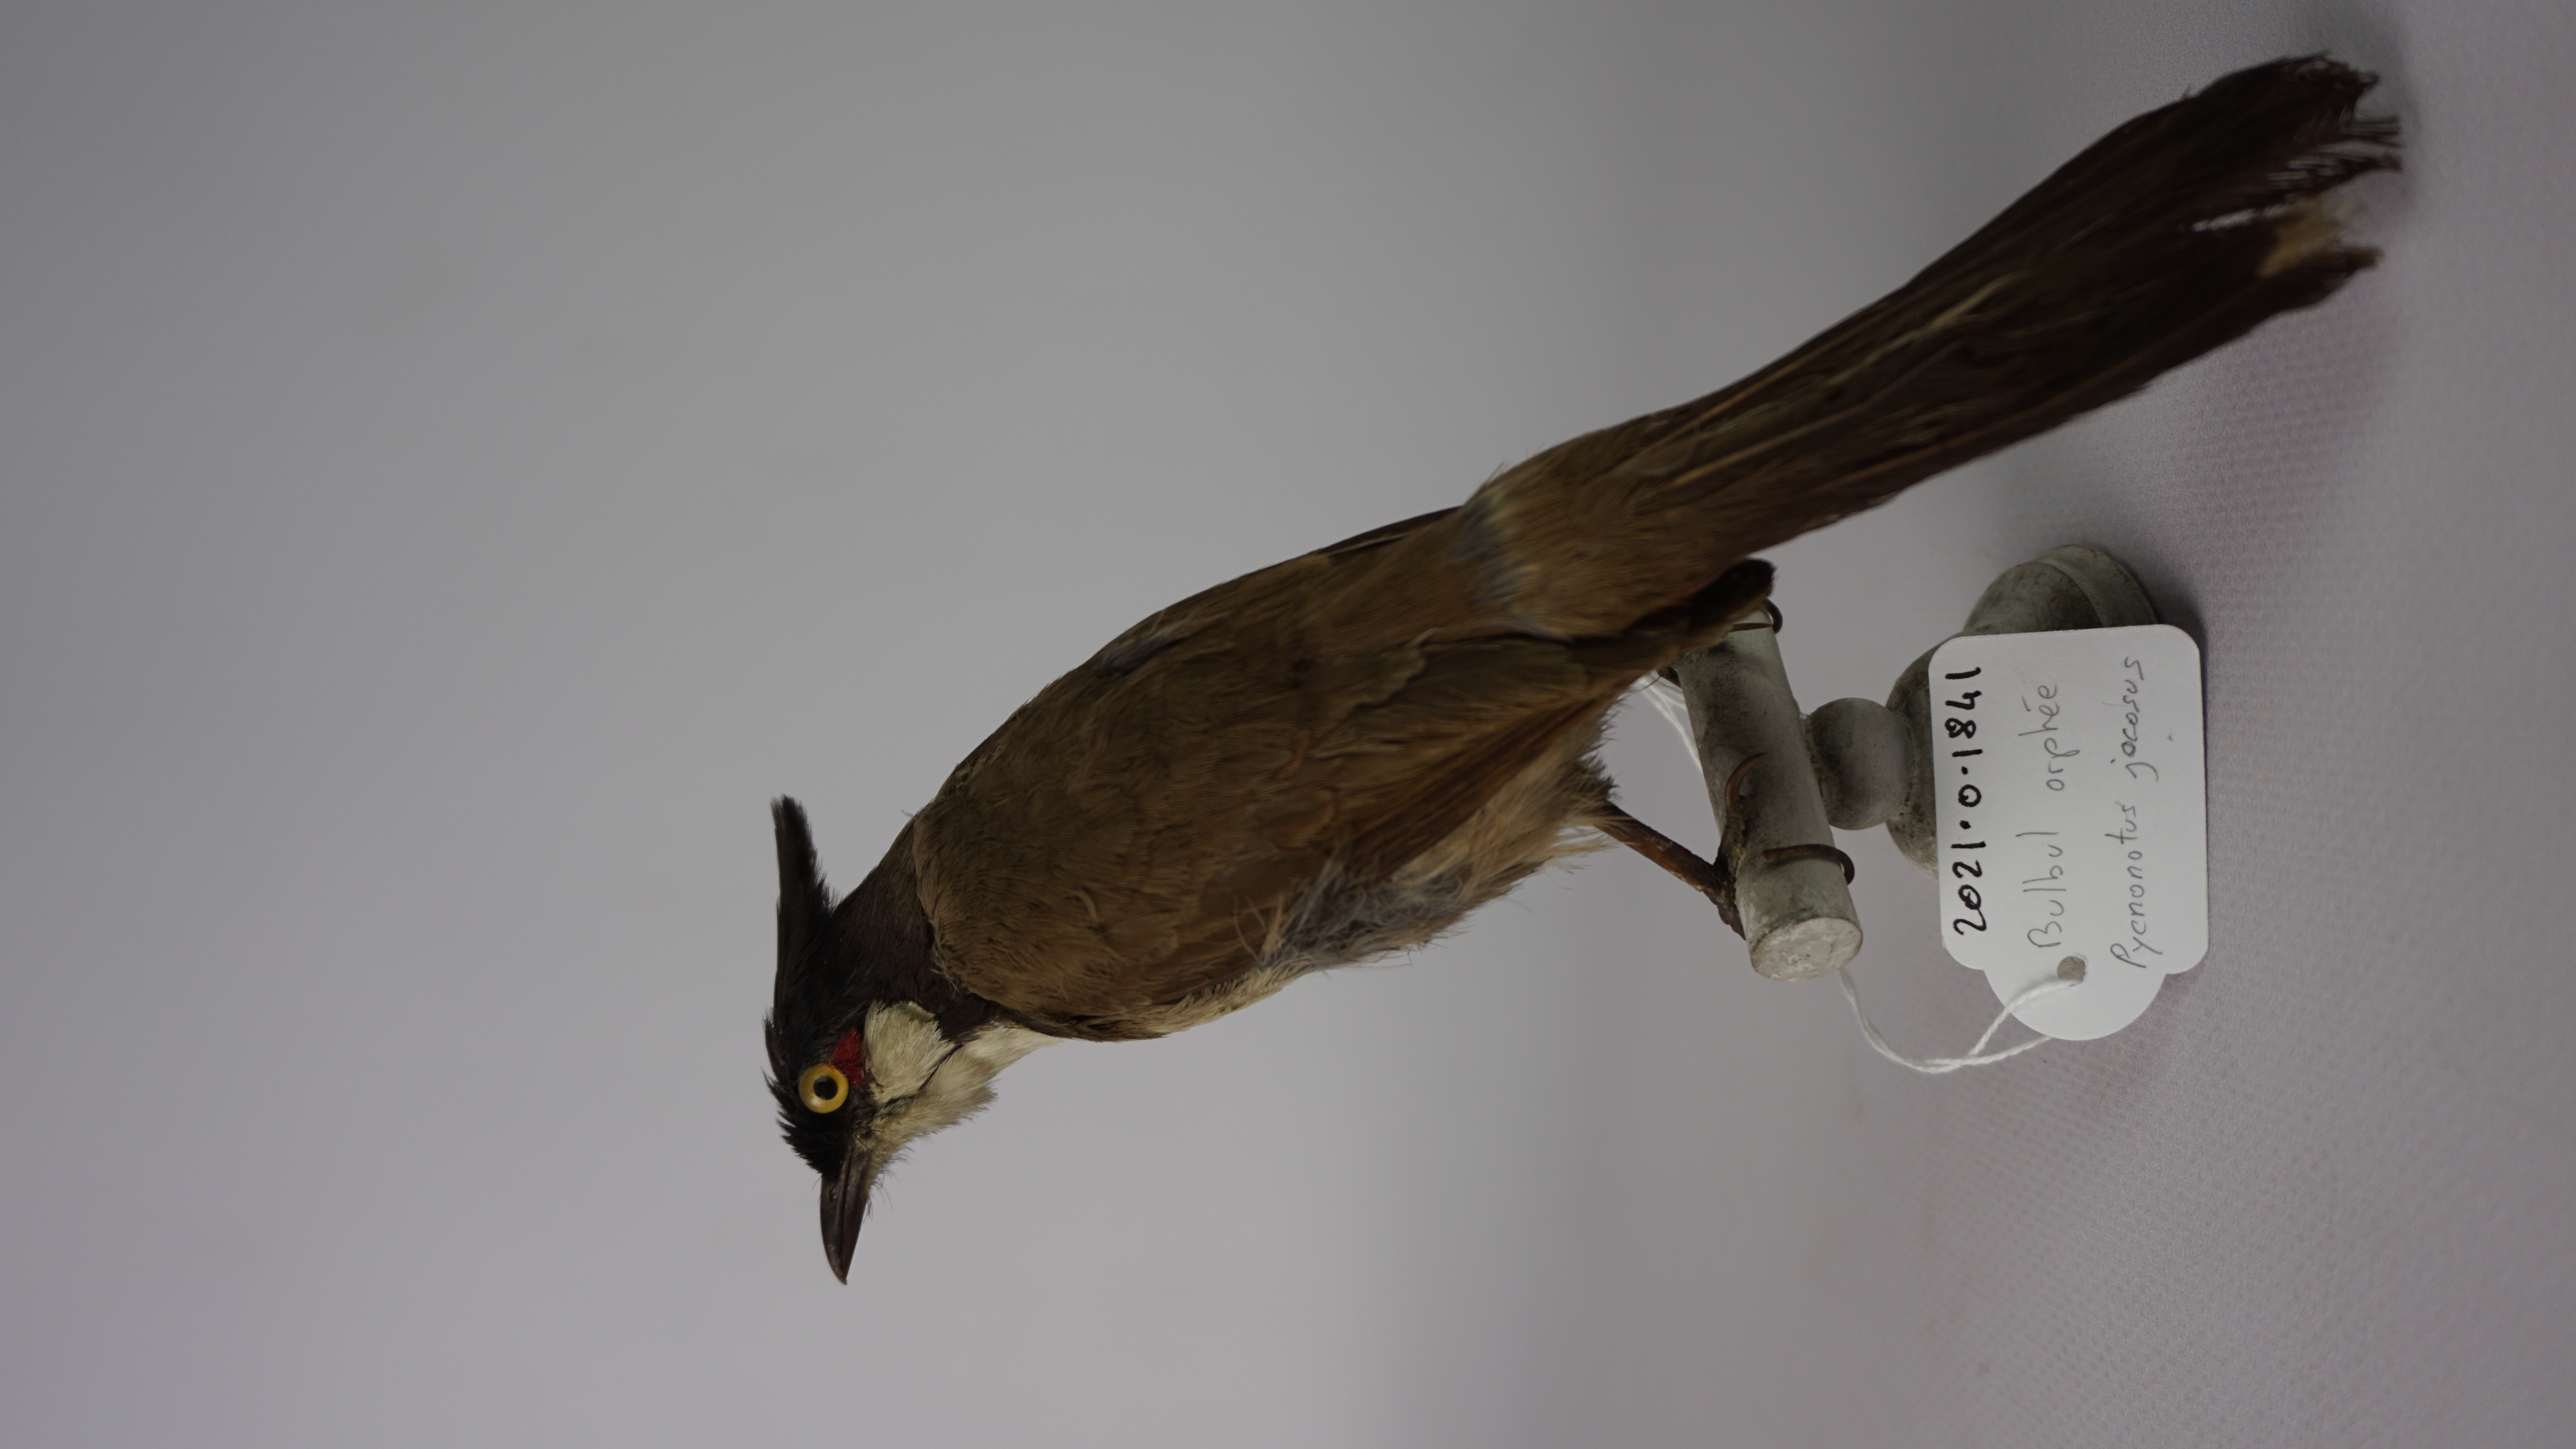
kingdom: Animalia
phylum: Chordata
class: Aves
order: Passeriformes
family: Pycnonotidae
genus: Pycnonotus
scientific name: Pycnonotus jocosus
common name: Red-whiskered bulbul
